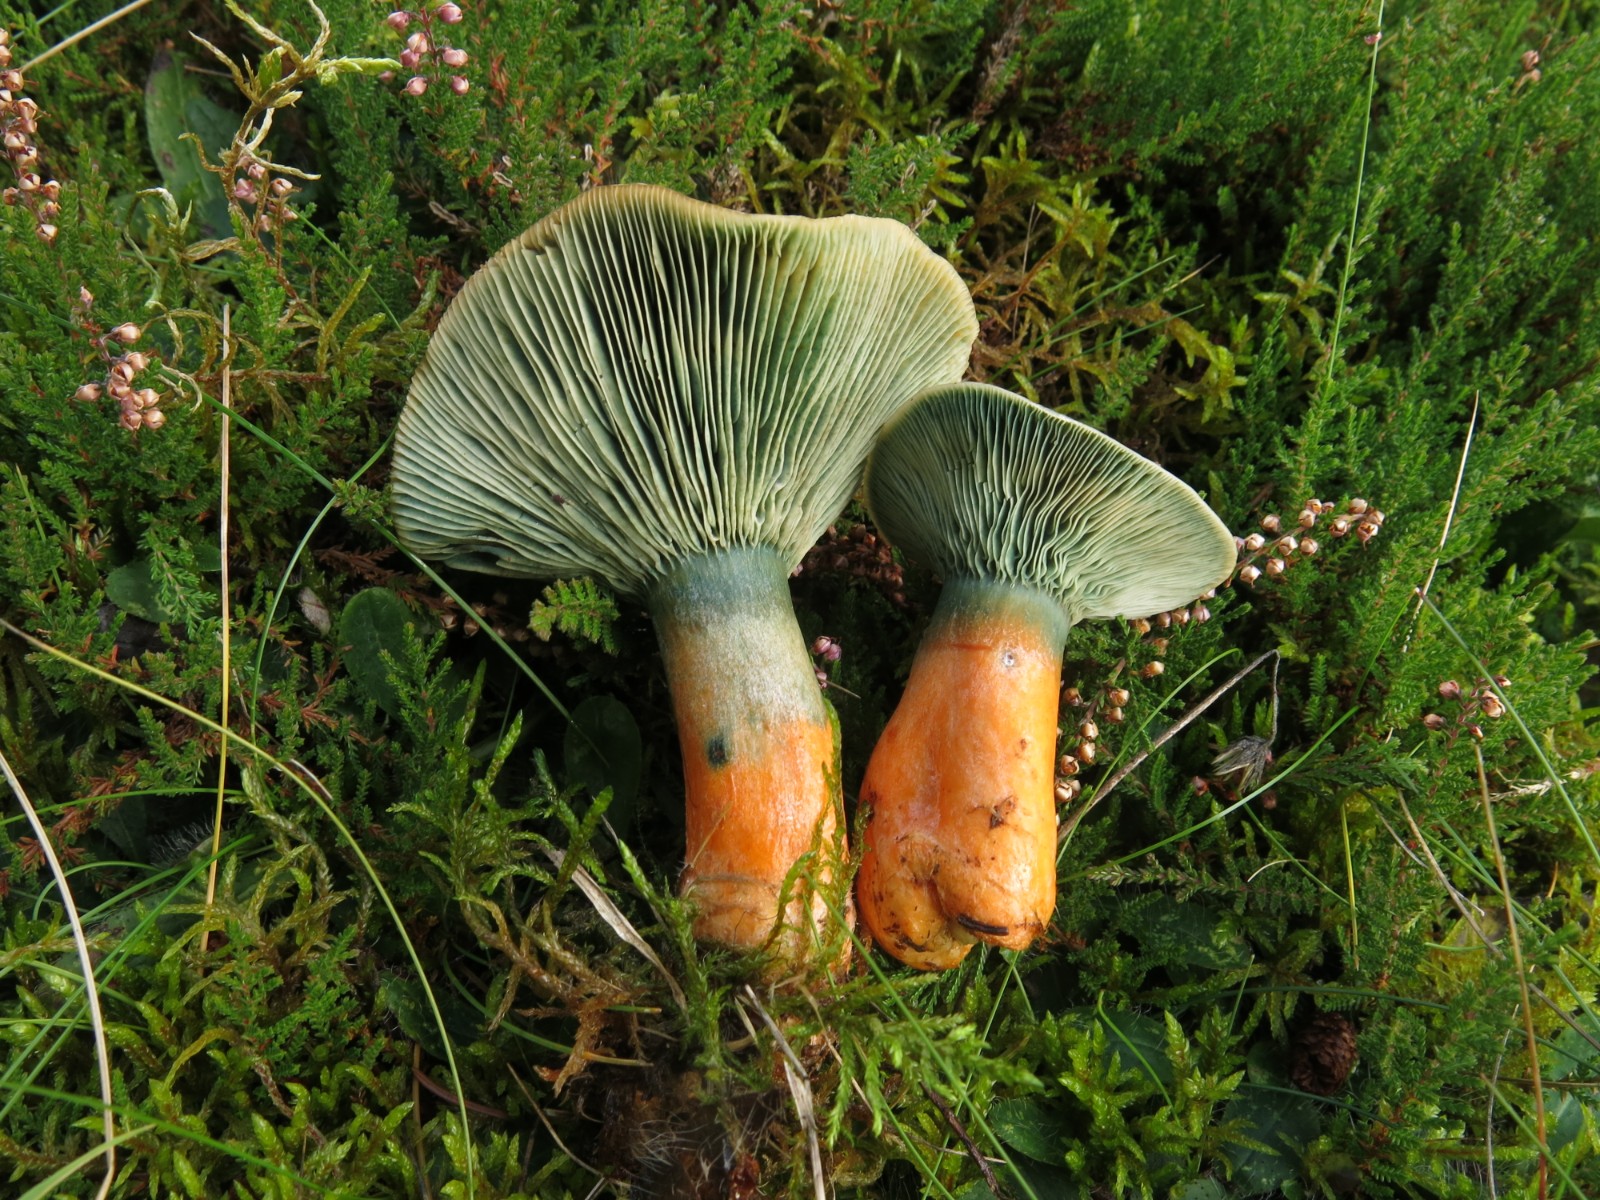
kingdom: Fungi
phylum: Basidiomycota
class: Agaricomycetes
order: Russulales
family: Russulaceae
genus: Lactarius
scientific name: Lactarius deterrimus
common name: gran-mælkehat
